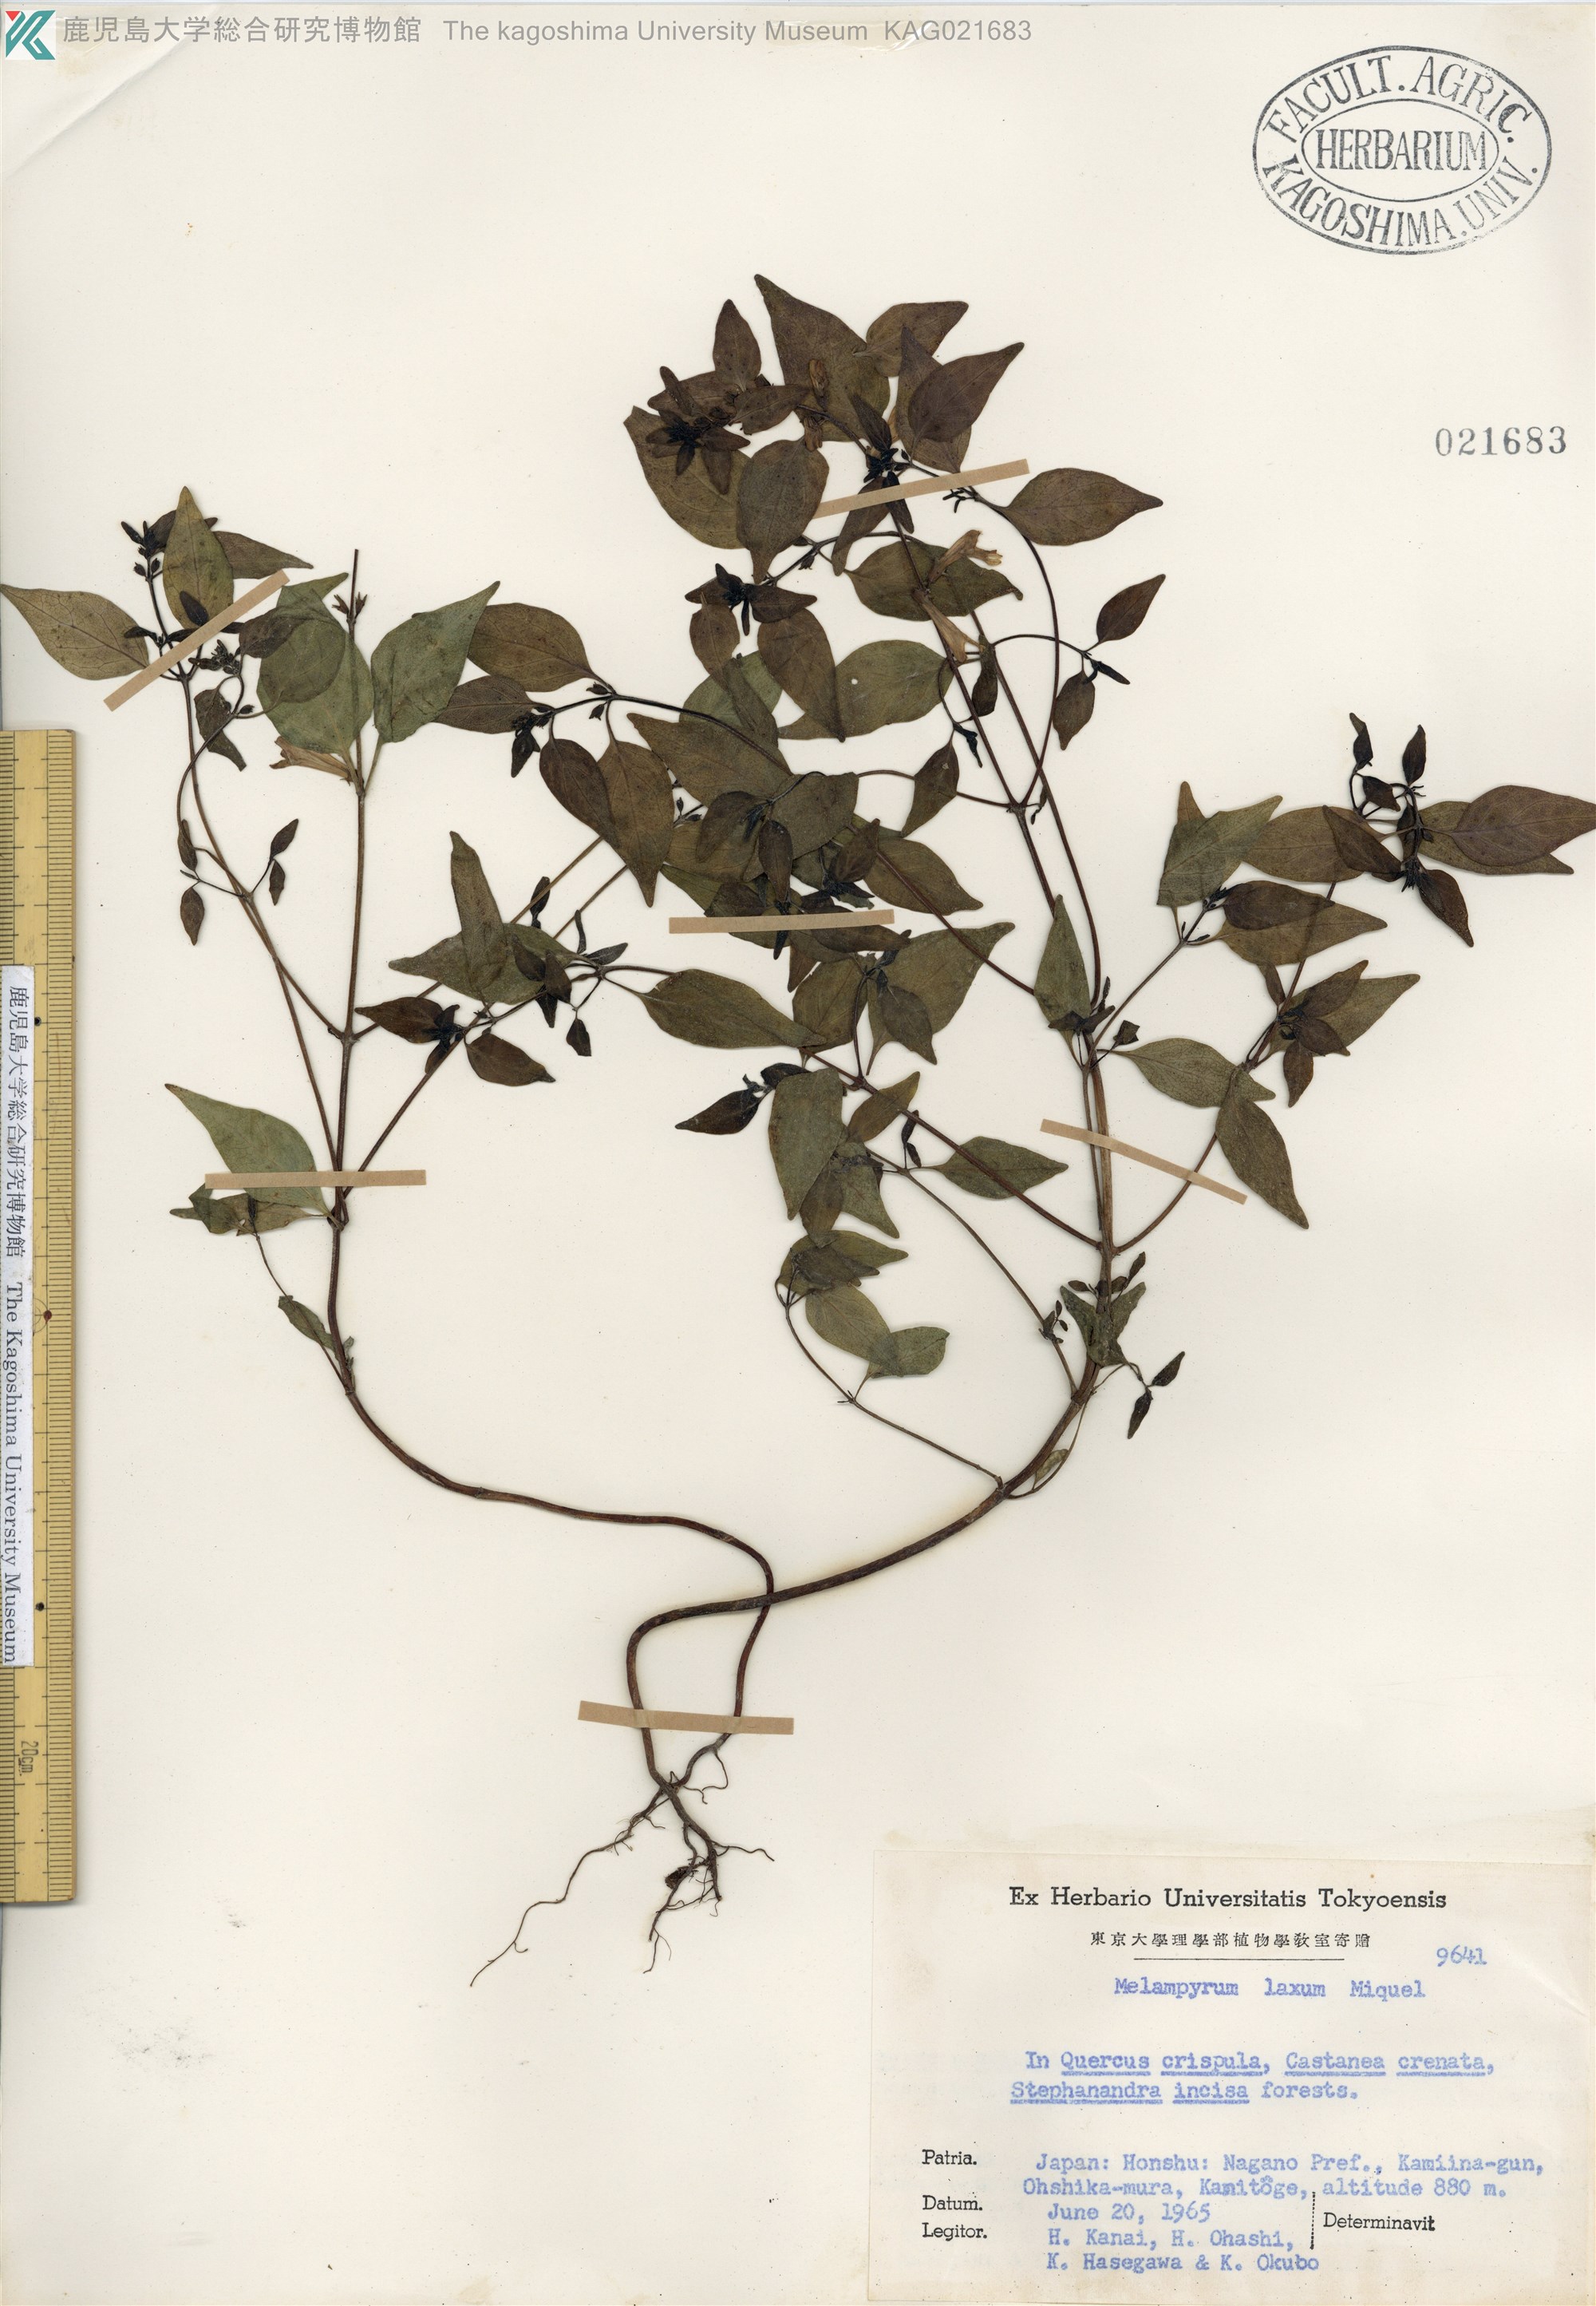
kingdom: Plantae
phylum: Tracheophyta
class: Magnoliopsida
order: Lamiales
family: Orobanchaceae
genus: Melampyrum
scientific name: Melampyrum laxum
